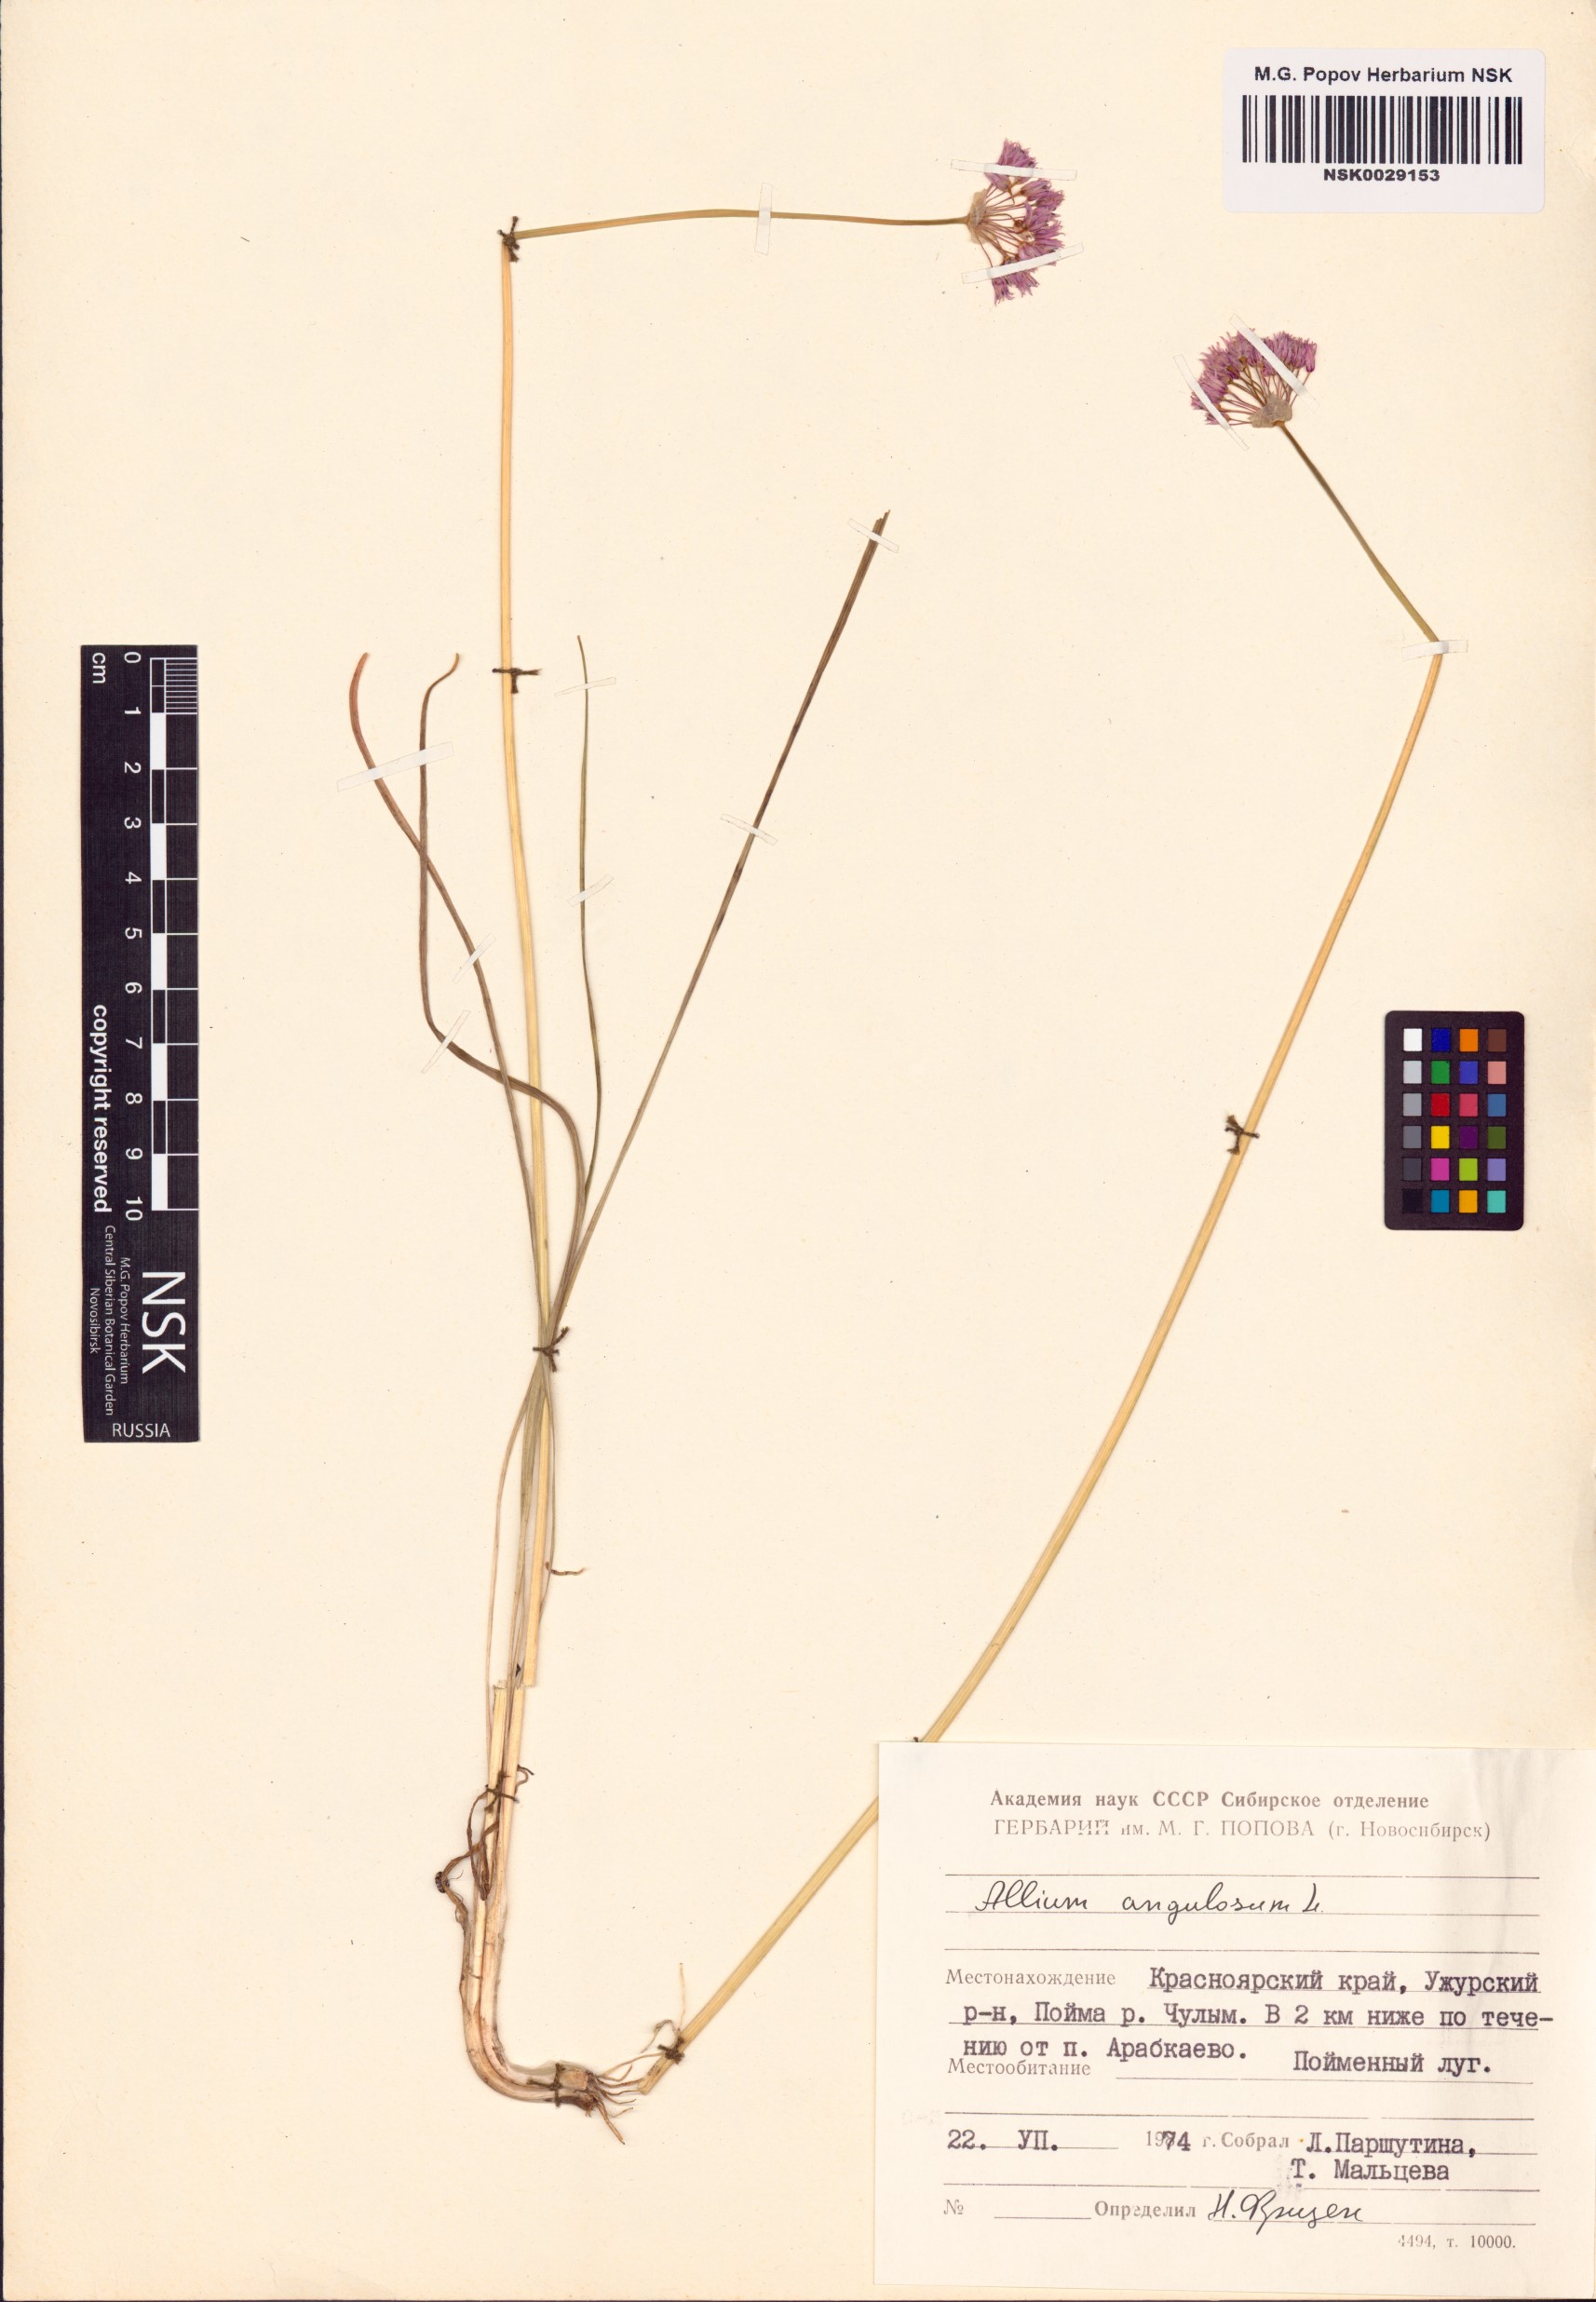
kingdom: Plantae
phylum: Tracheophyta
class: Liliopsida
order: Asparagales
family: Amaryllidaceae
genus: Allium
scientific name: Allium angulosum
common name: Mouse garlic
